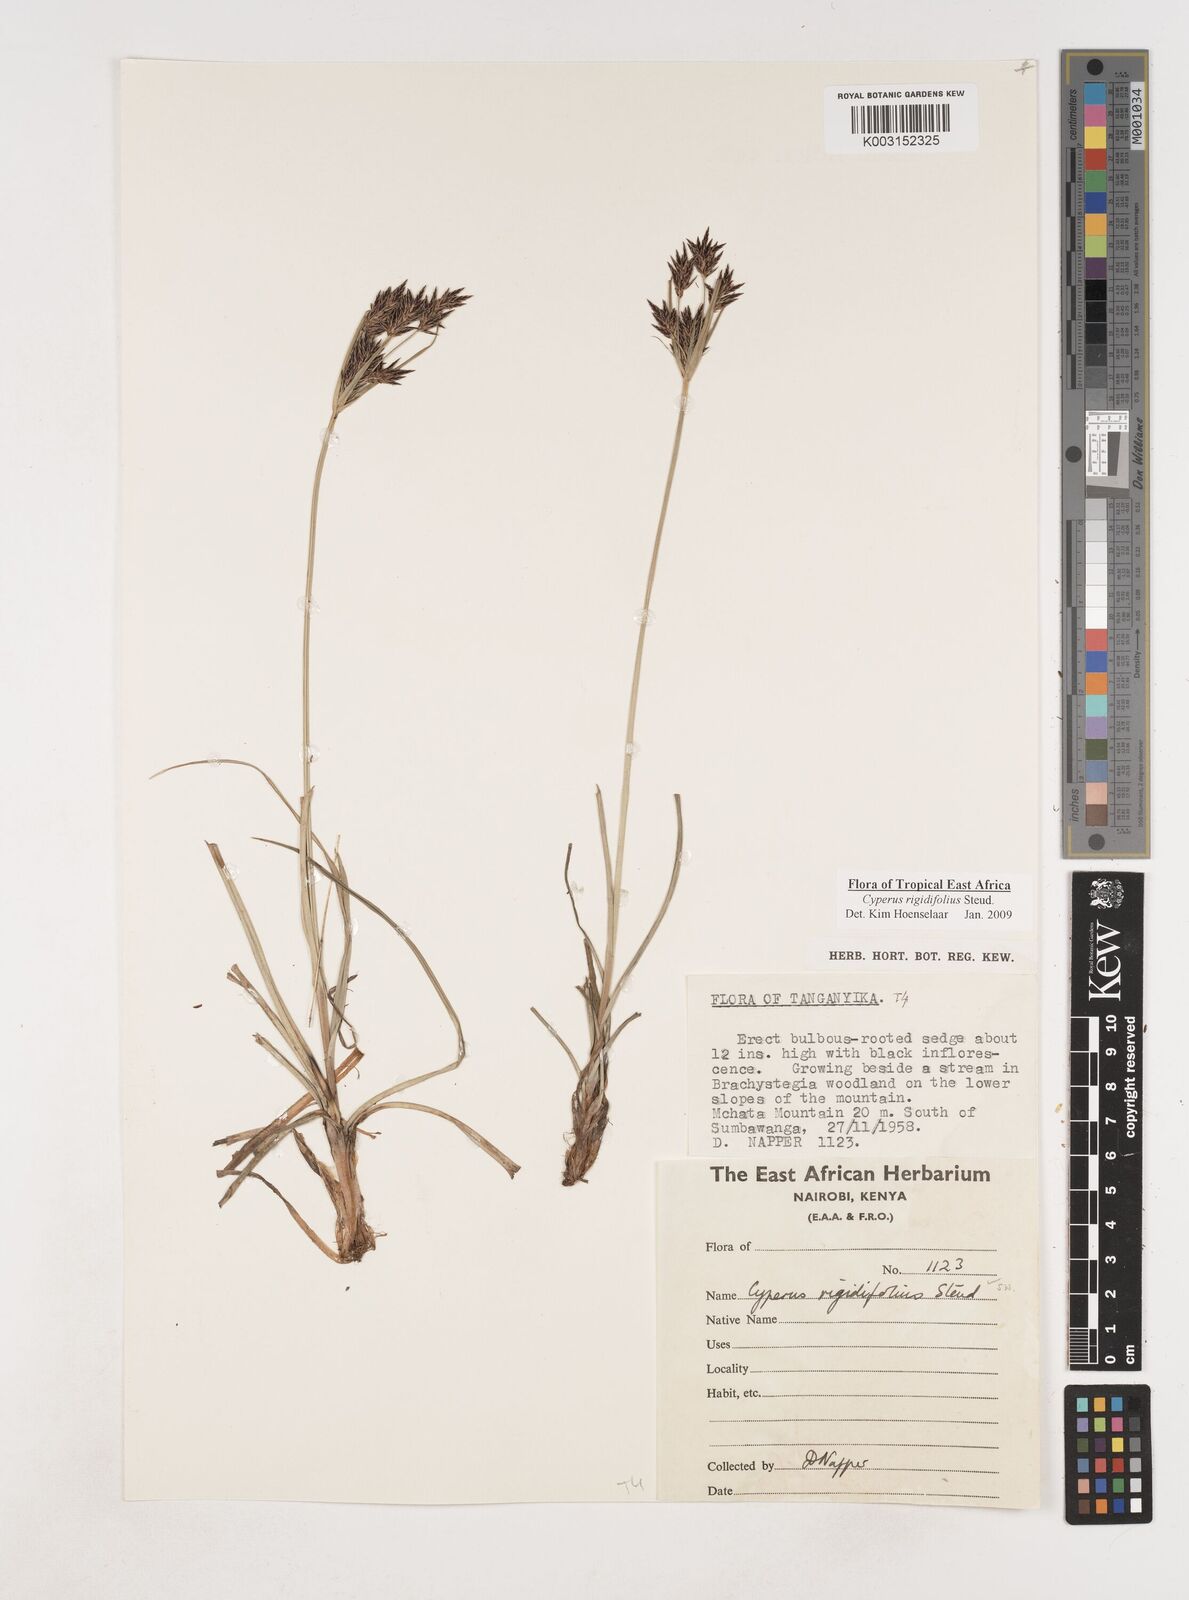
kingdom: Plantae
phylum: Tracheophyta
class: Liliopsida
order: Poales
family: Cyperaceae
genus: Cyperus
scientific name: Cyperus rigidifolius
